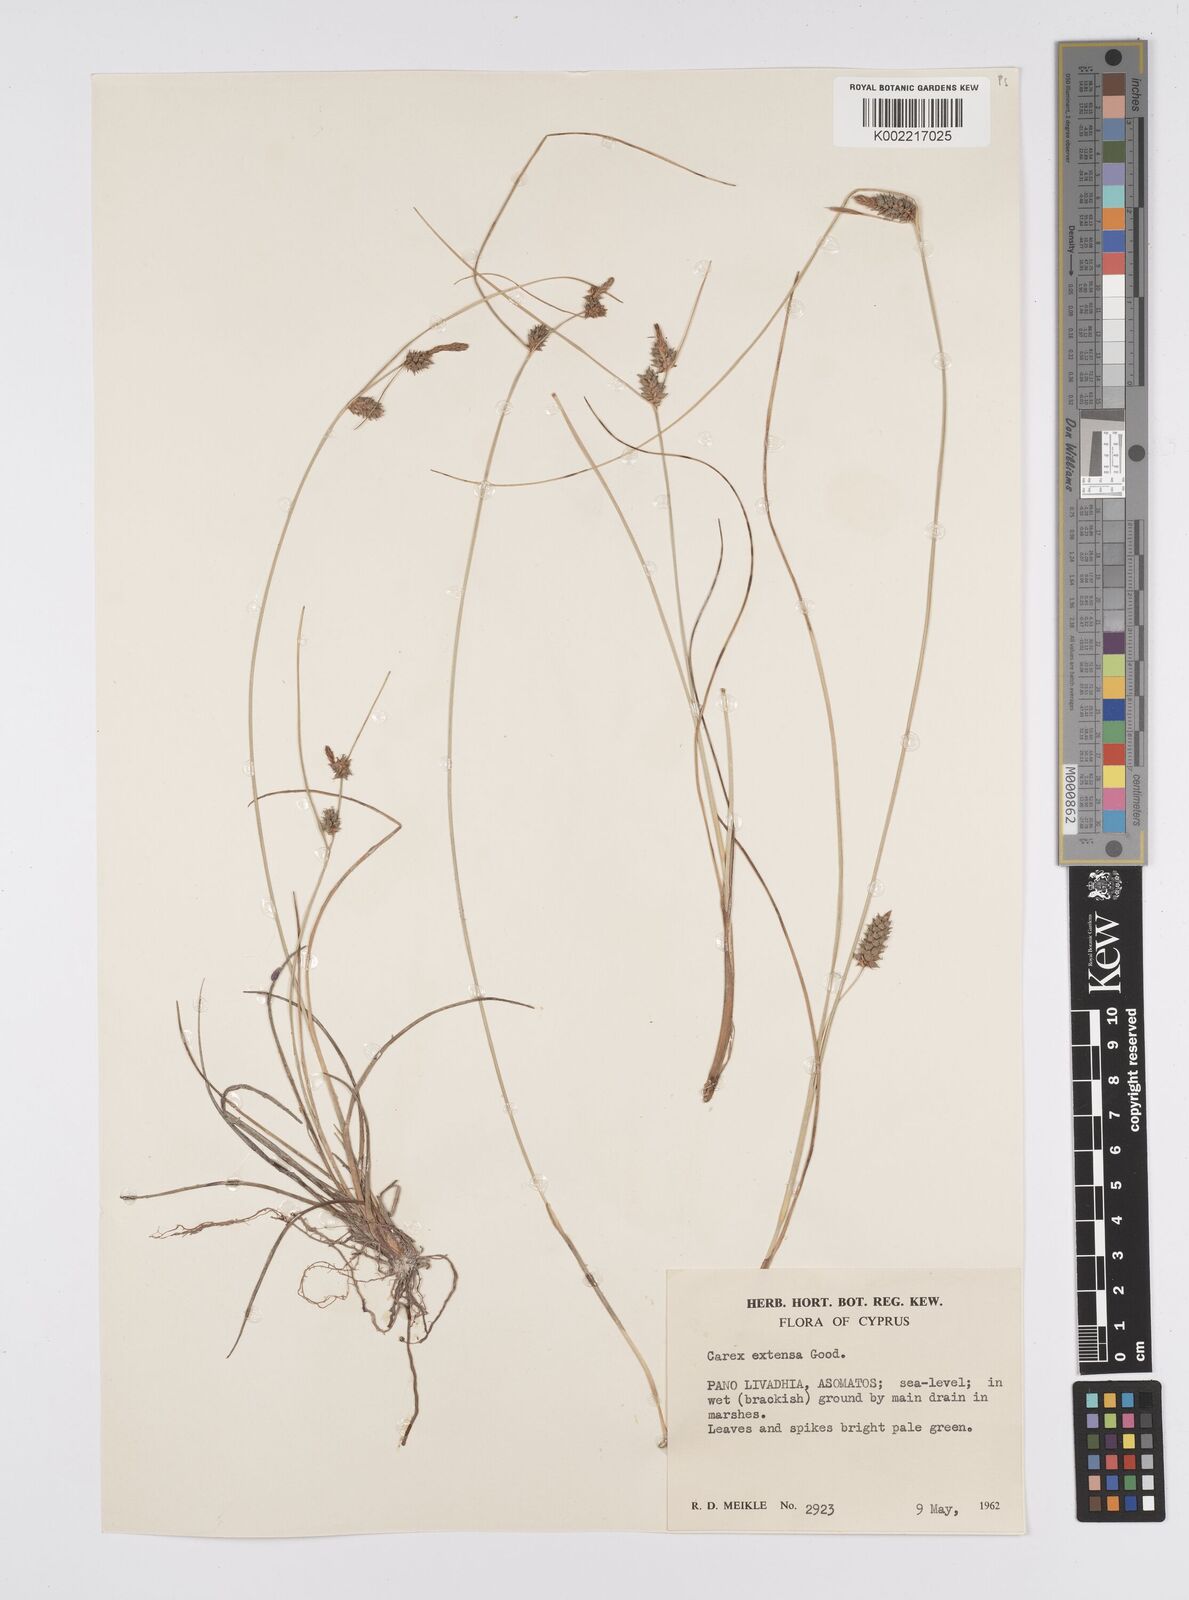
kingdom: Plantae
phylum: Tracheophyta
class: Liliopsida
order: Poales
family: Cyperaceae
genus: Carex
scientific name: Carex extensa
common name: Long-bracted sedge
